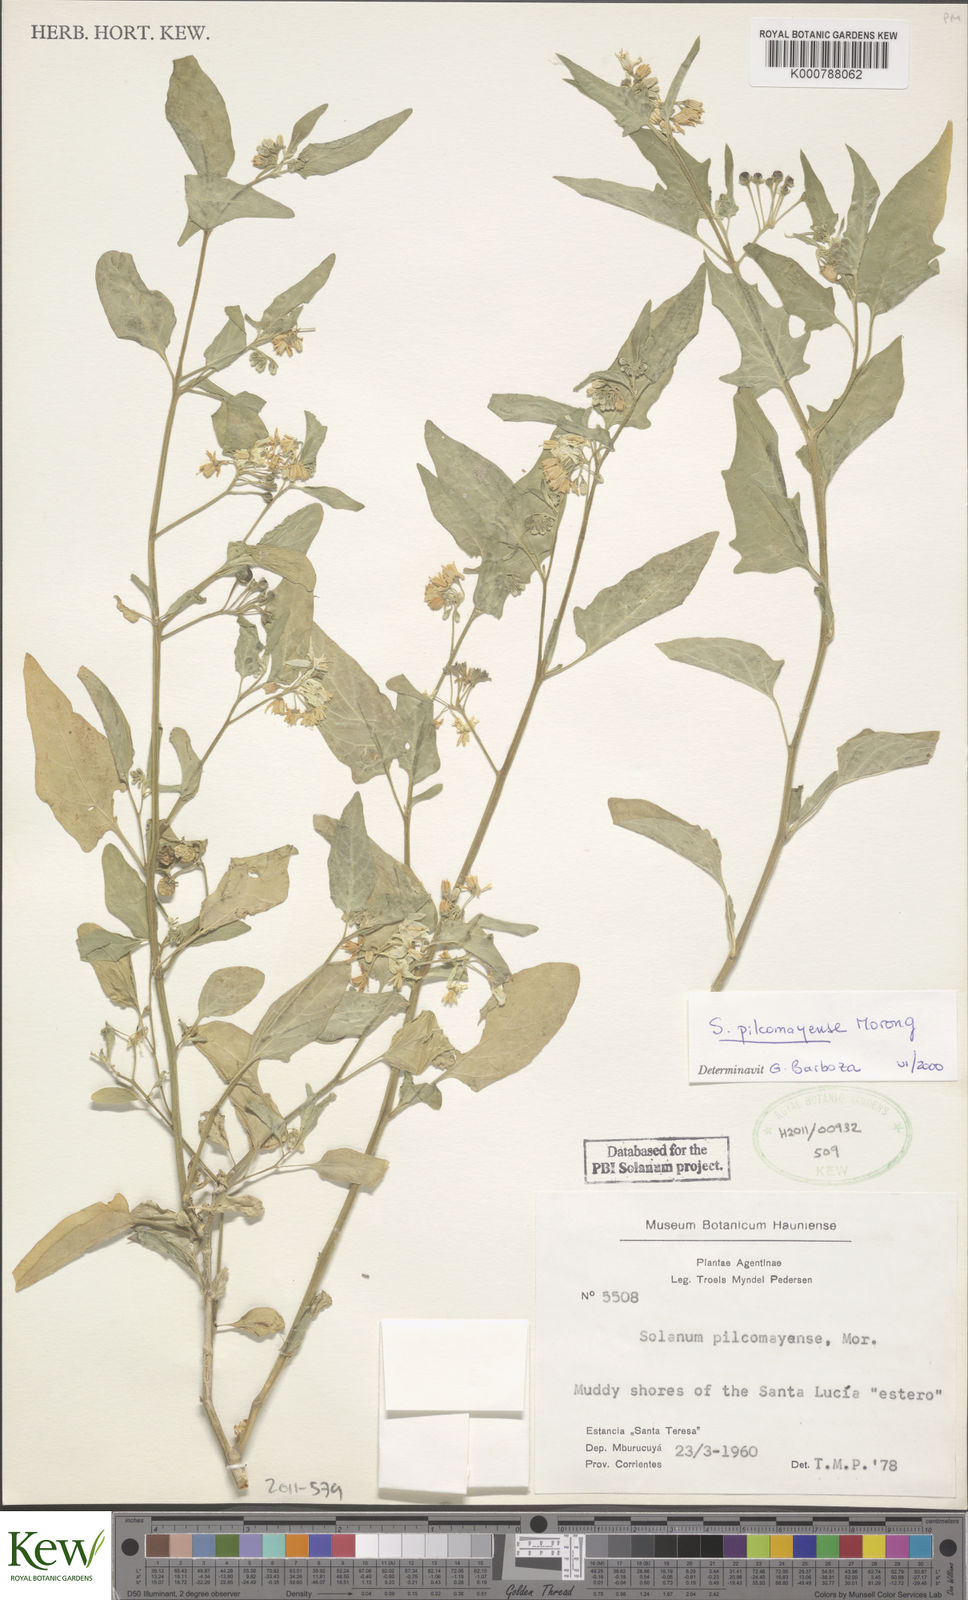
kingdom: Plantae
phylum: Tracheophyta
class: Magnoliopsida
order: Solanales
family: Solanaceae
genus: Solanum
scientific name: Solanum pilcomayense
